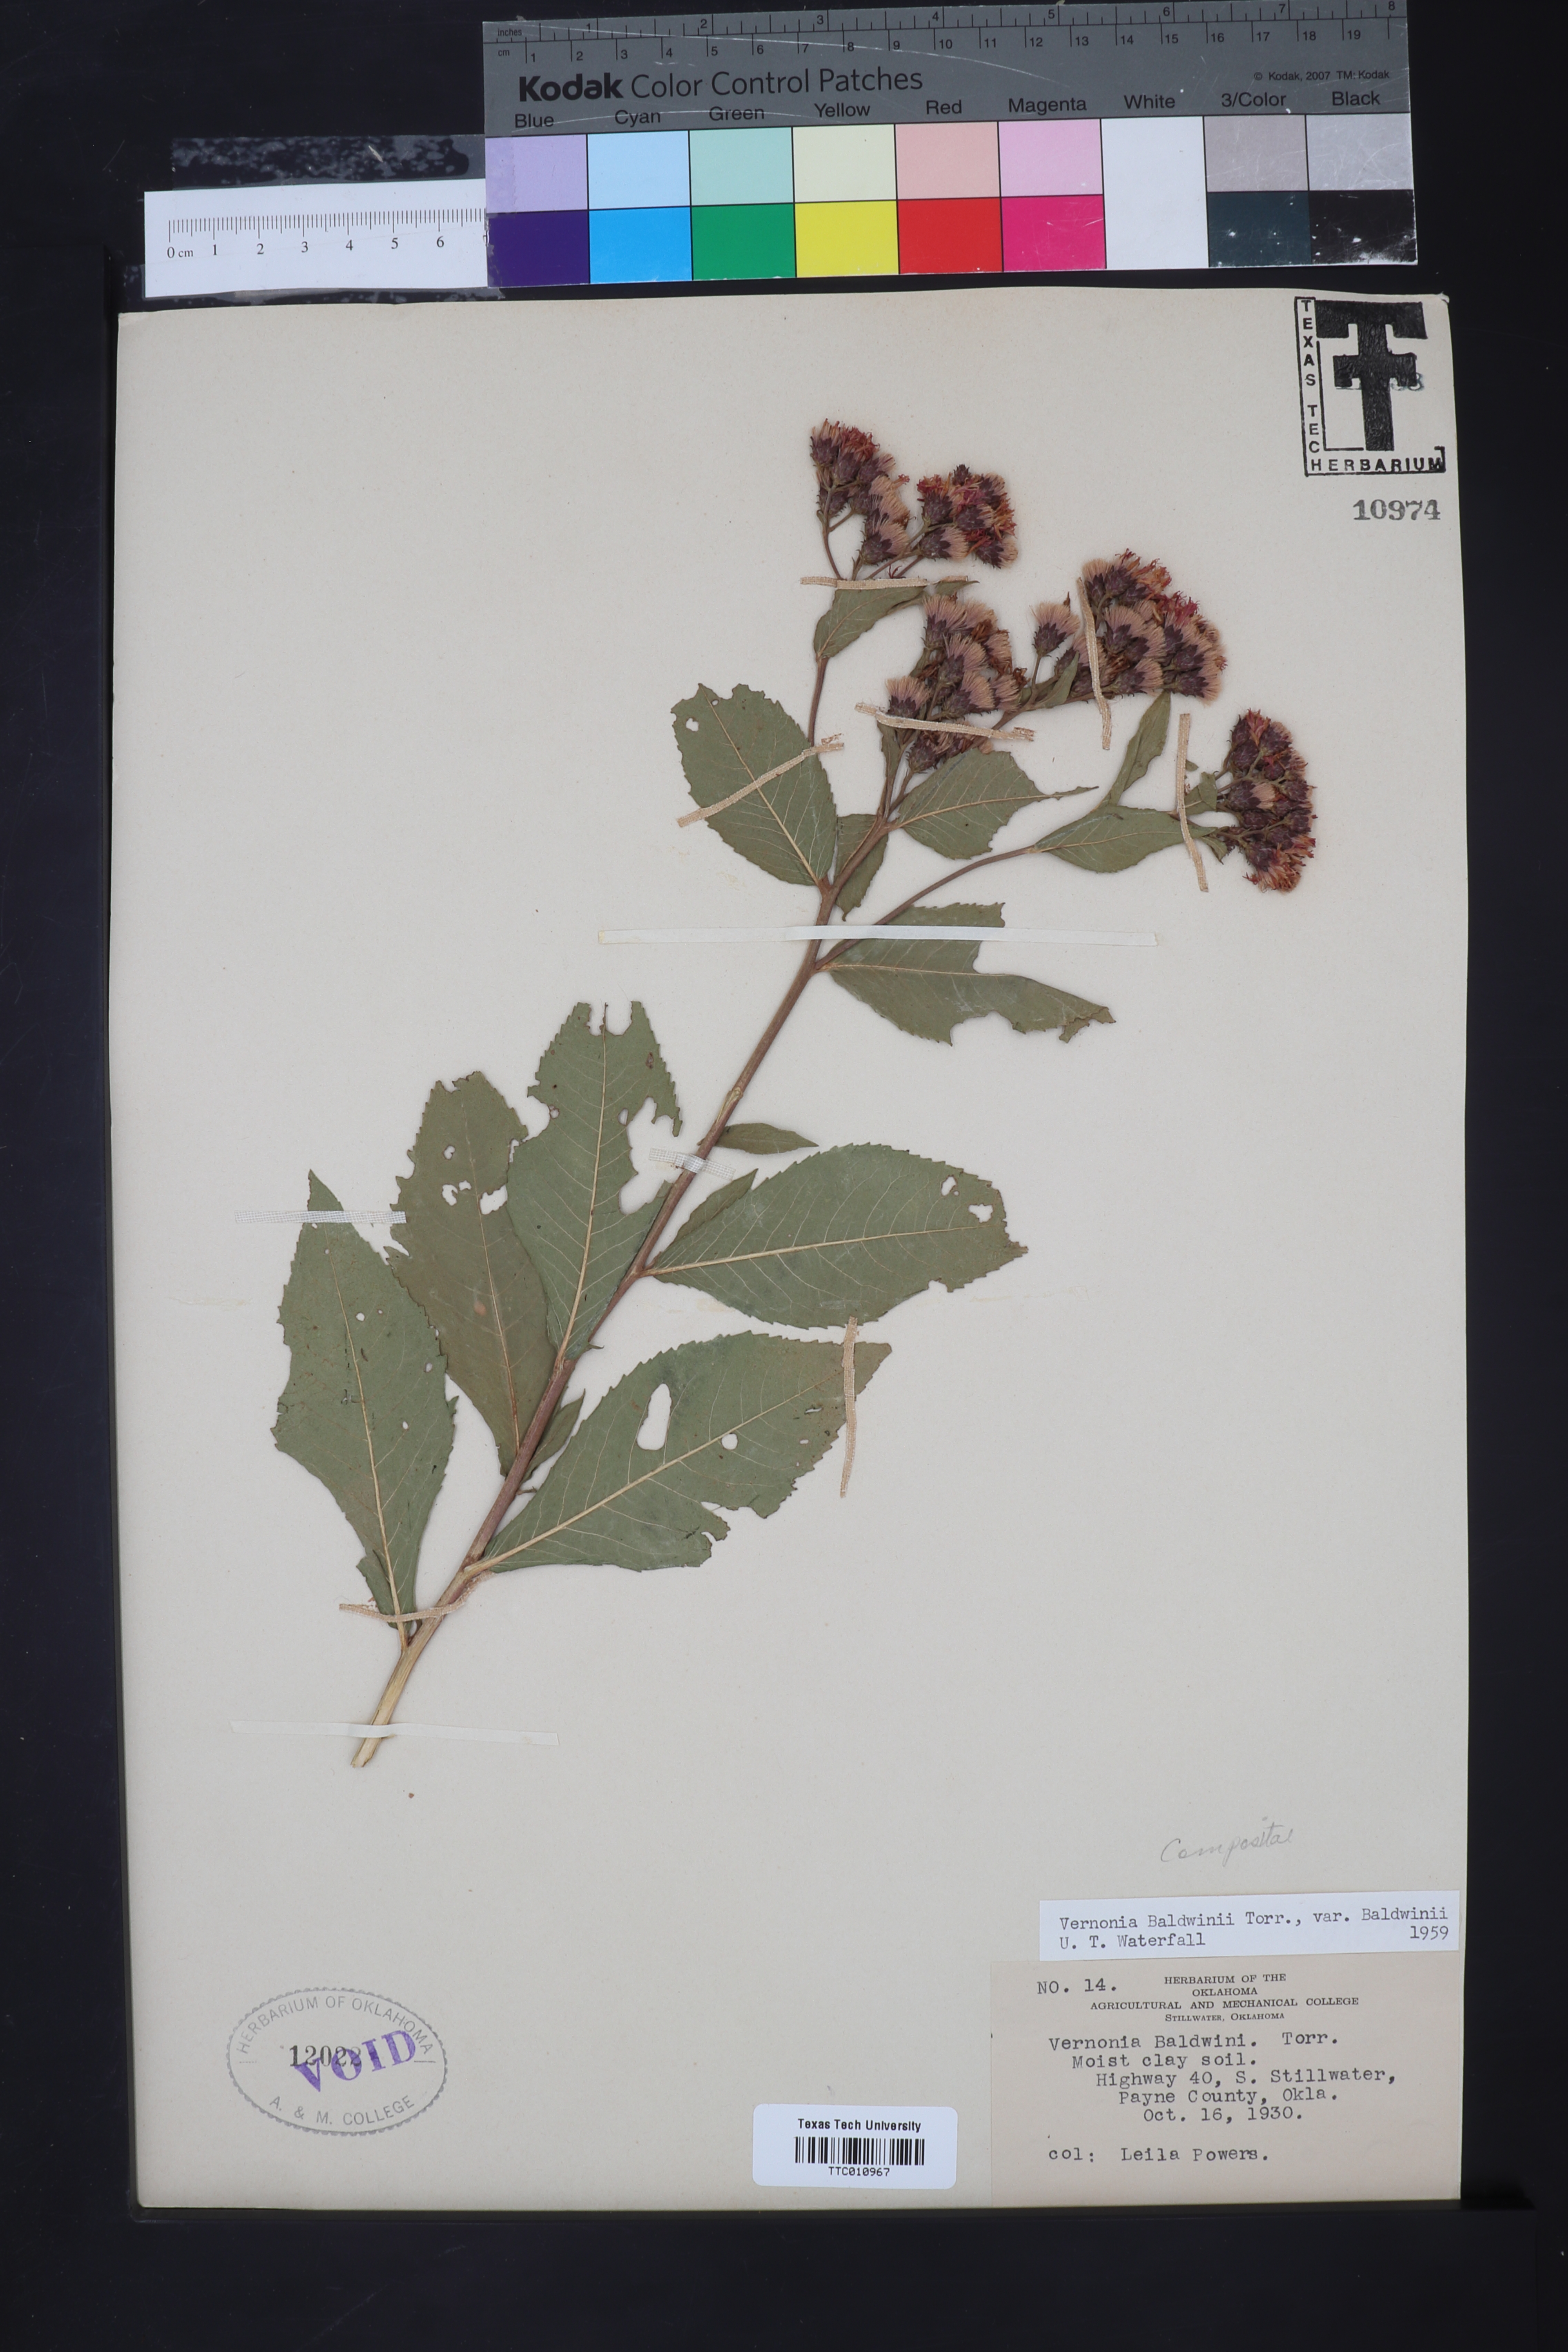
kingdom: Plantae
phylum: Tracheophyta
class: Magnoliopsida
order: Asterales
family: Asteraceae
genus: Vernonia
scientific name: Vernonia baldwinii
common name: Western ironweed
